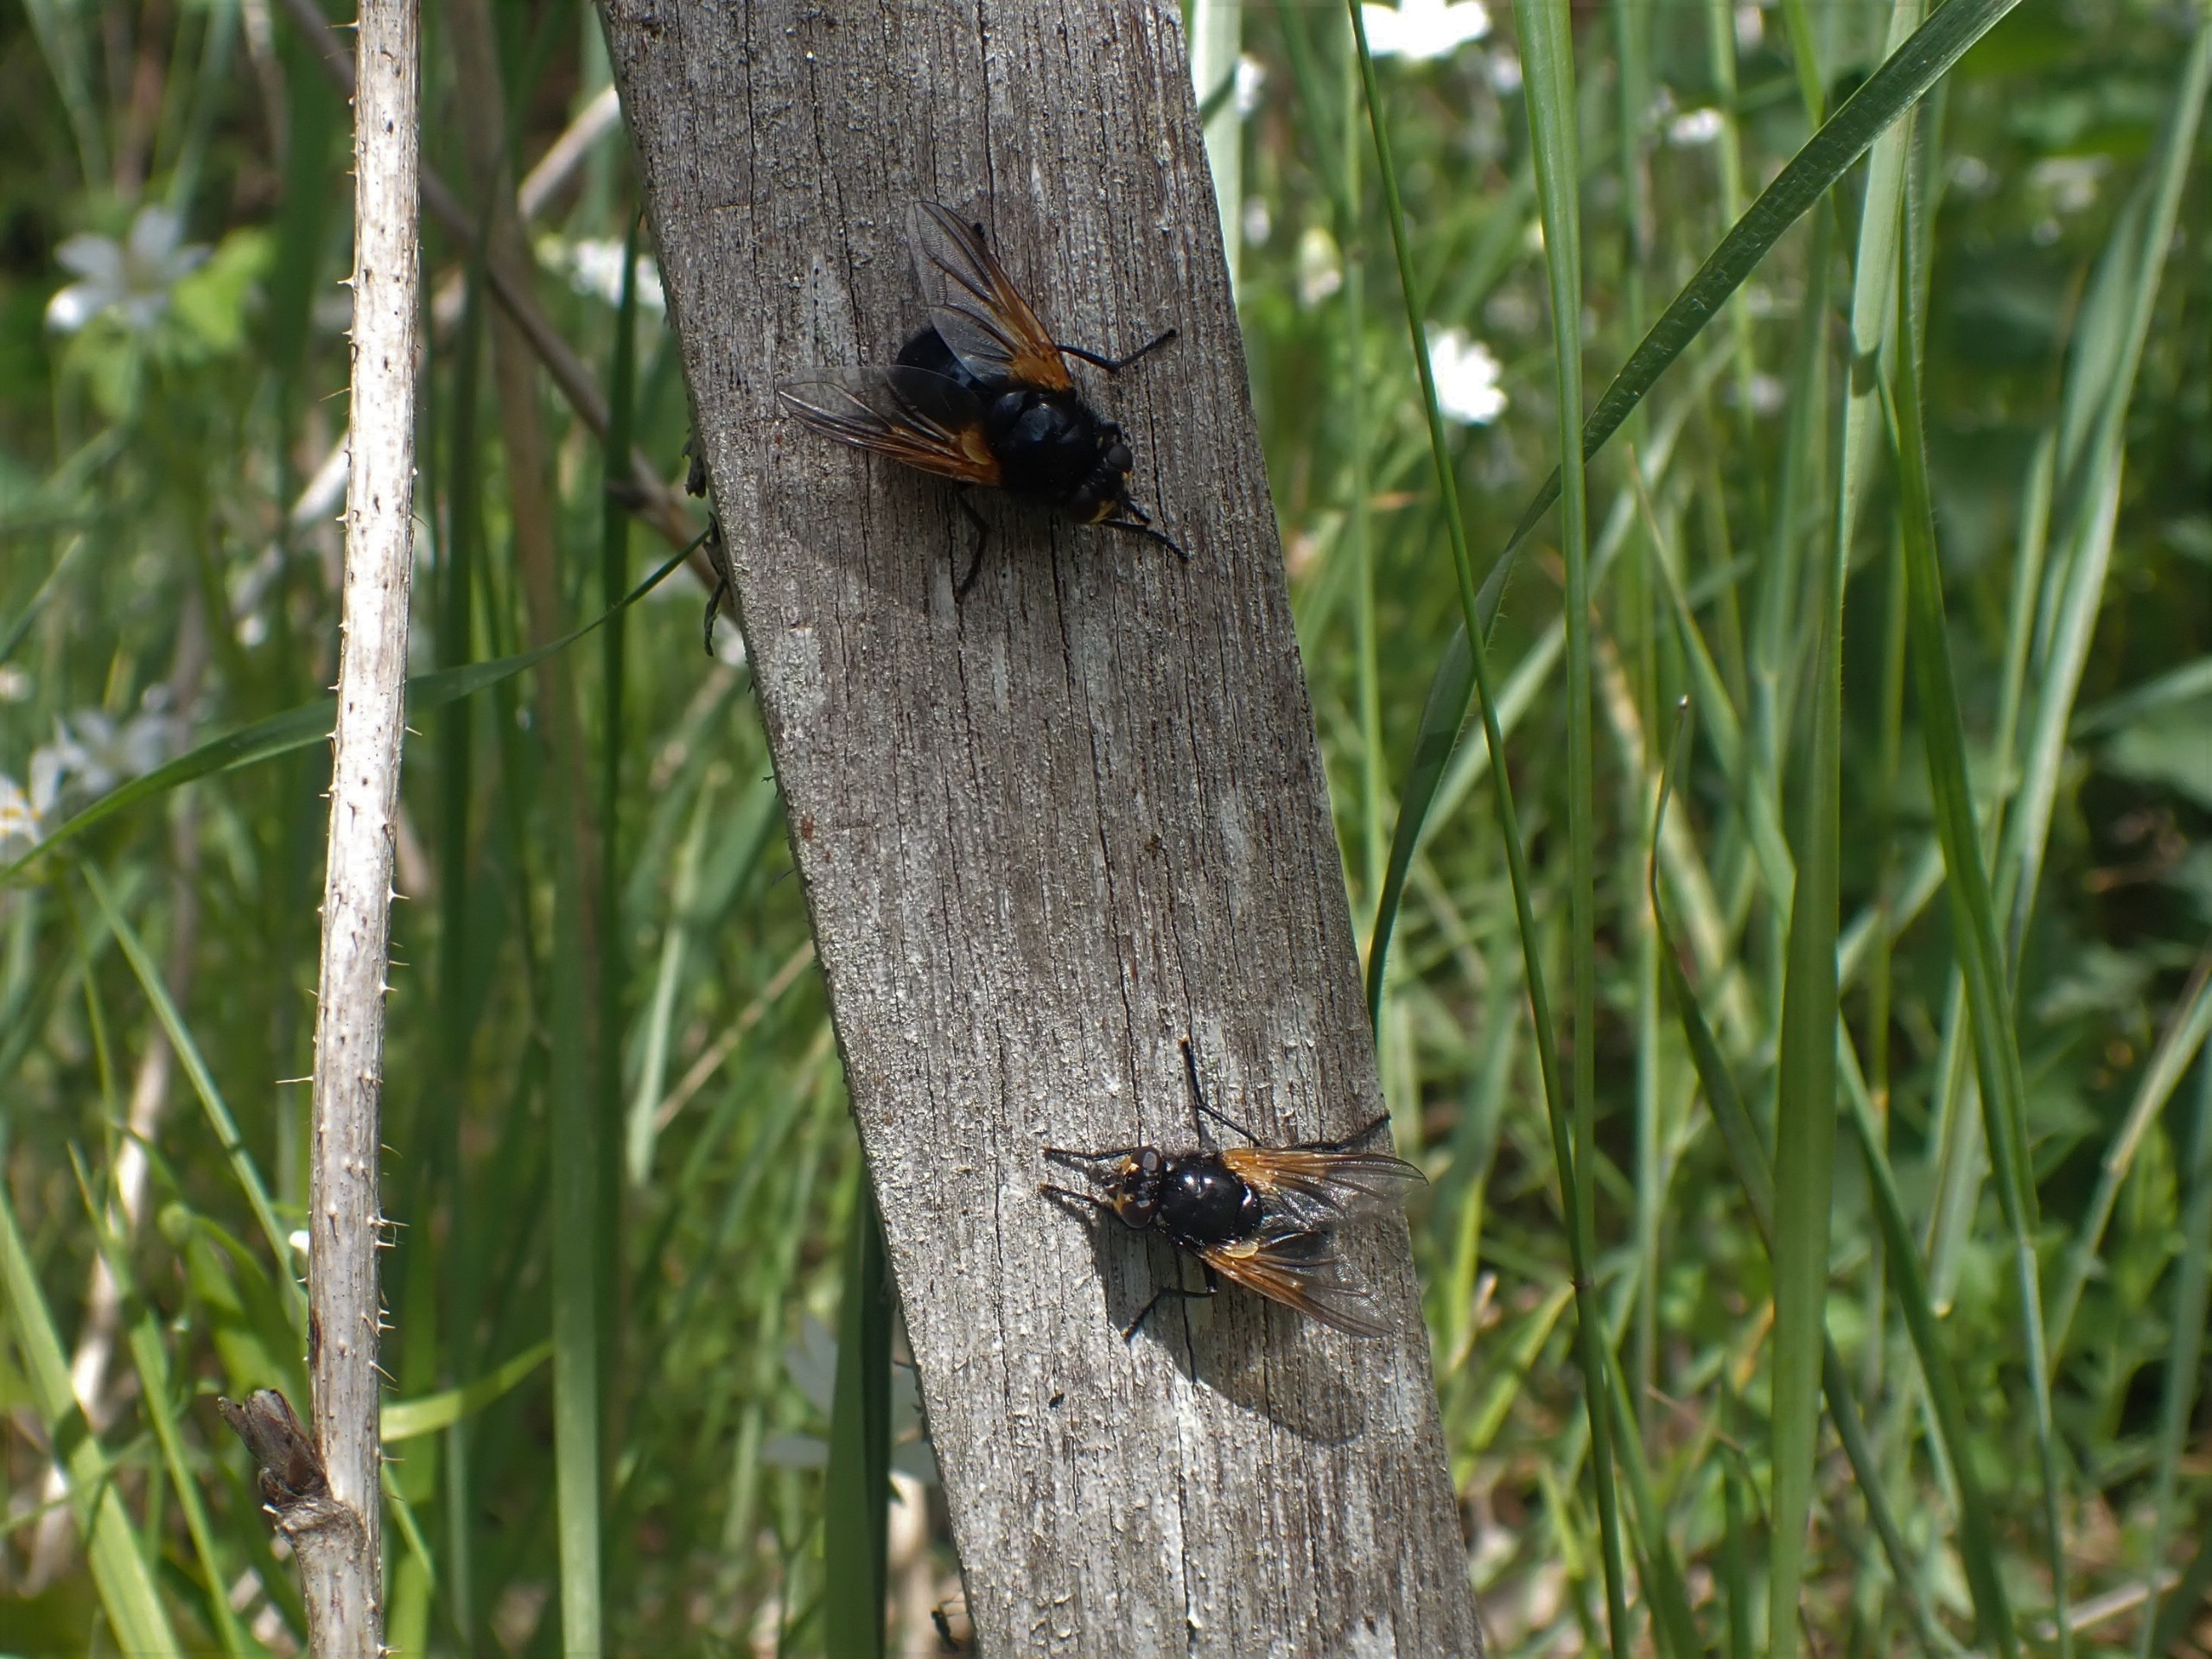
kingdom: Animalia
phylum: Arthropoda
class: Insecta
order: Diptera
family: Muscidae
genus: Mesembrina
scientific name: Mesembrina meridiana
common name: Gulvinget flue
